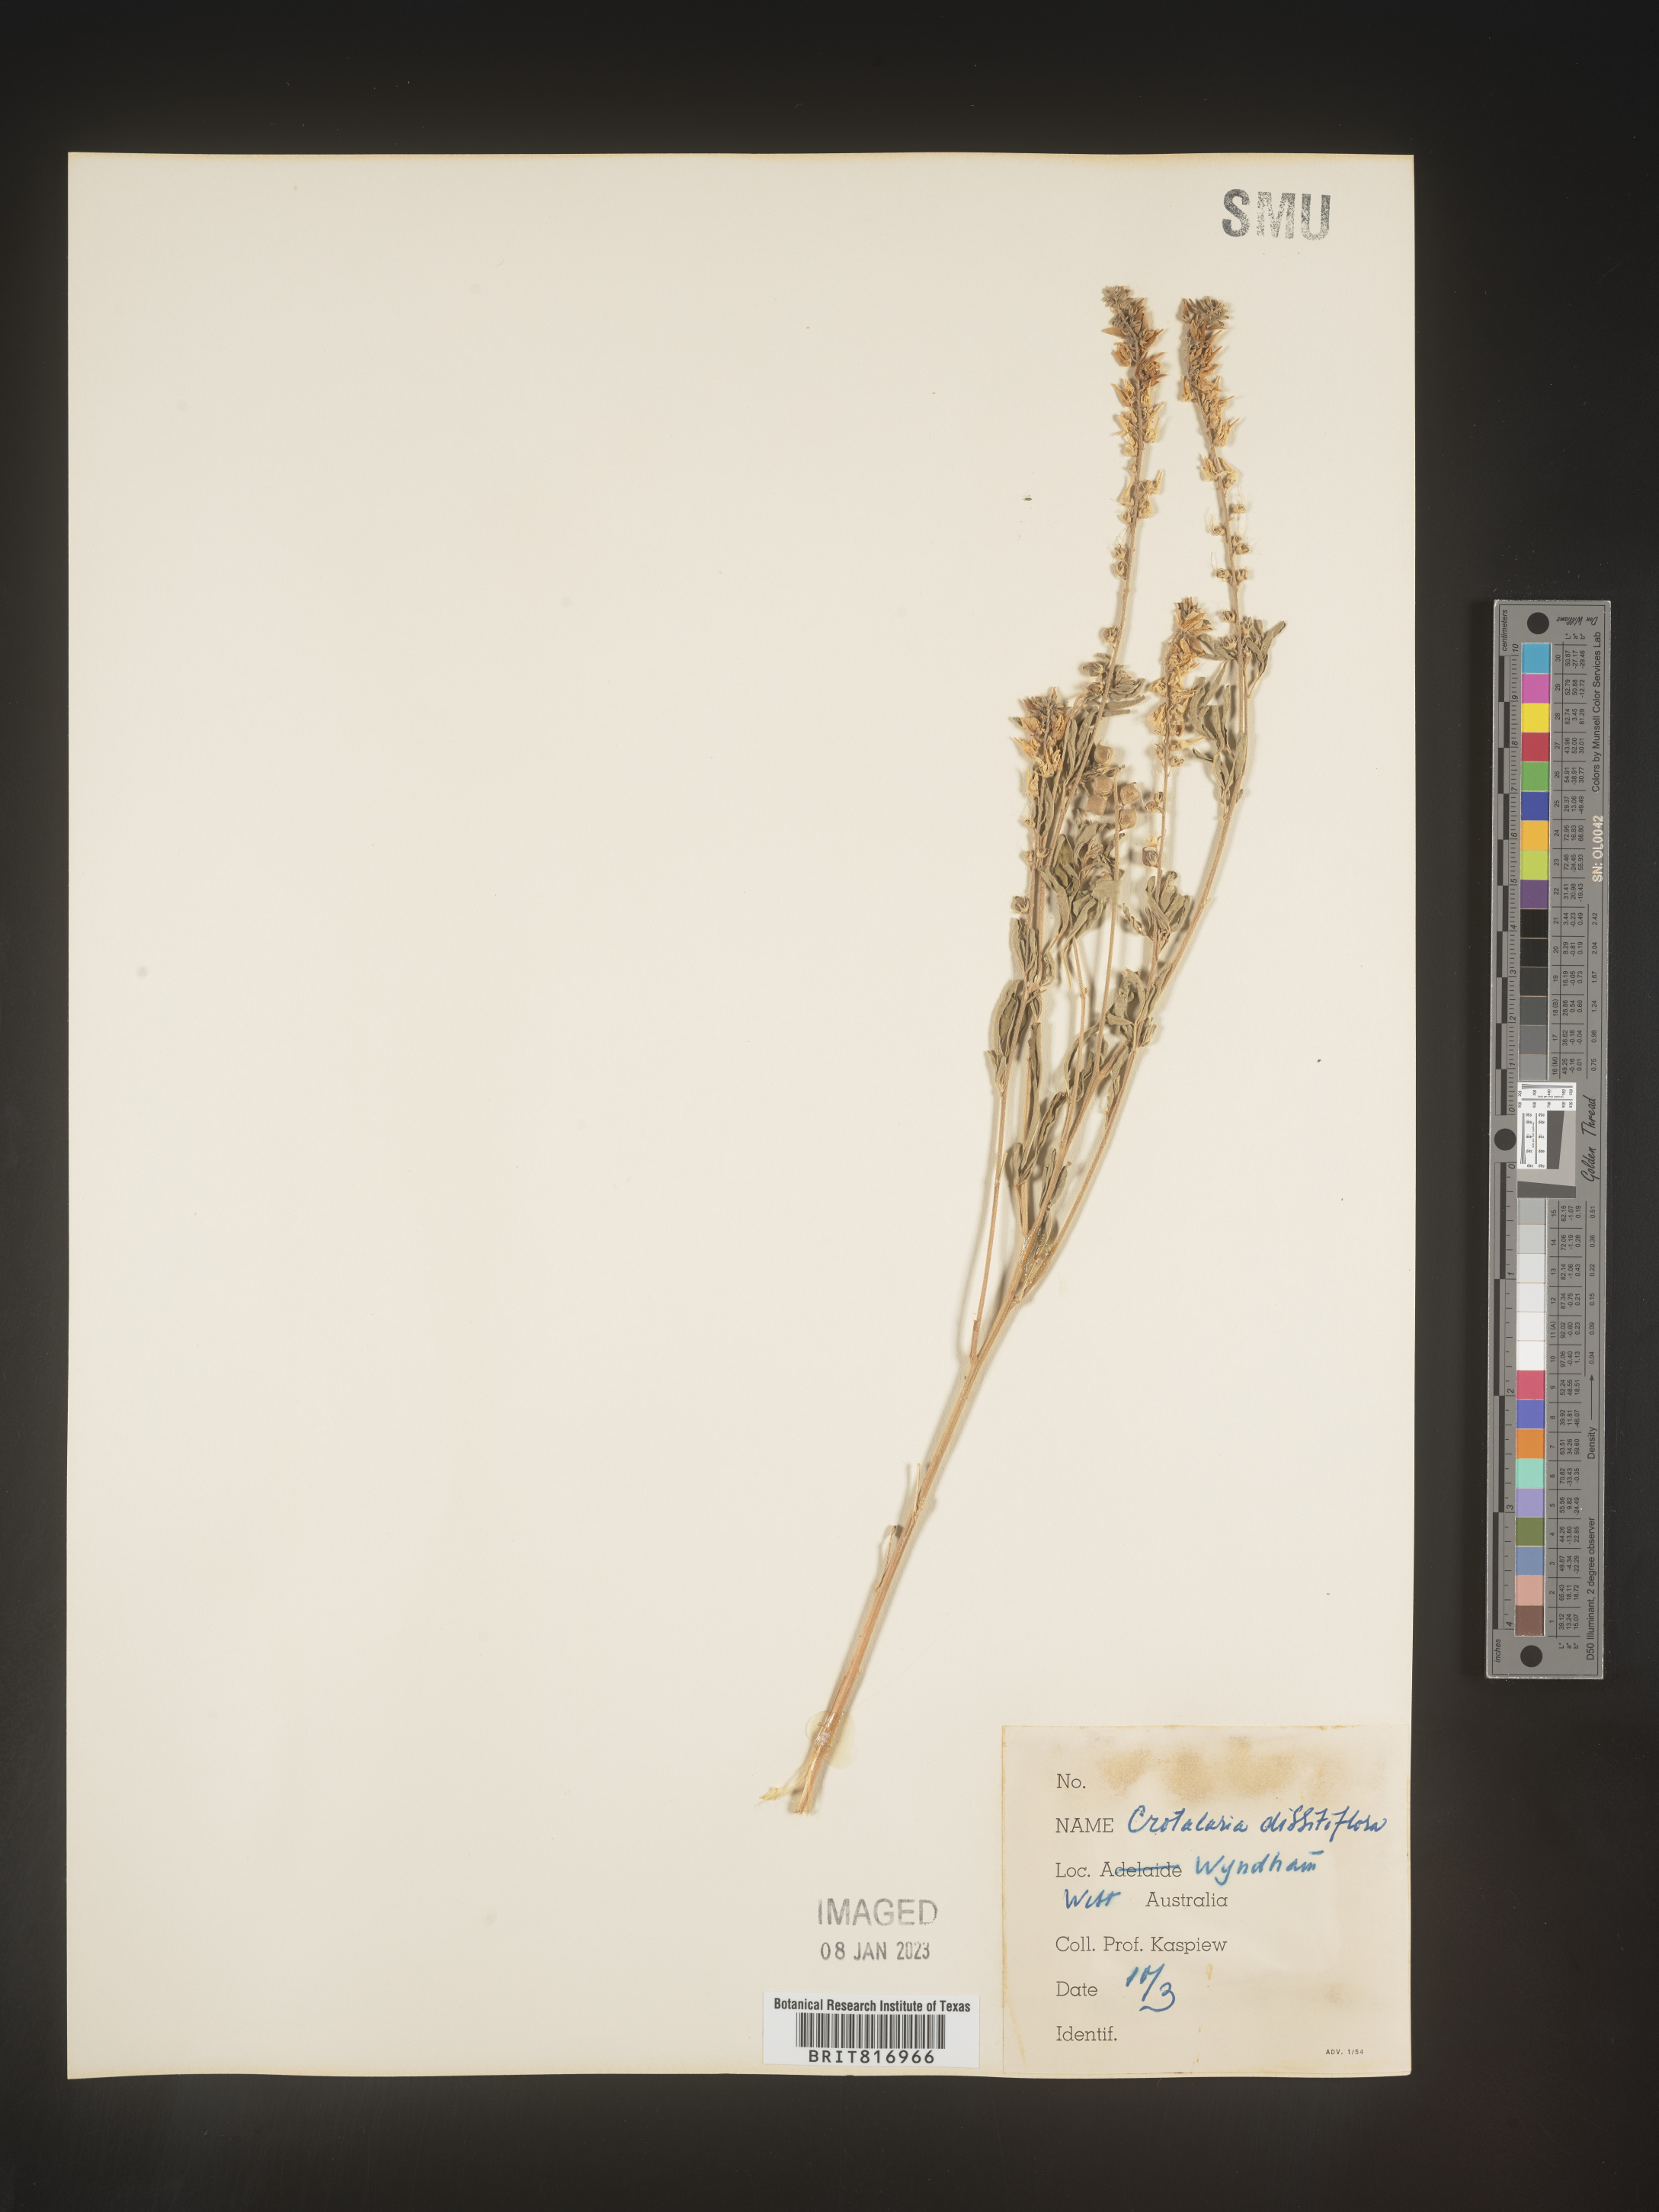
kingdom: Plantae
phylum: Tracheophyta
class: Magnoliopsida
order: Fabales
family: Fabaceae
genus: Crotalaria
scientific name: Crotalaria
